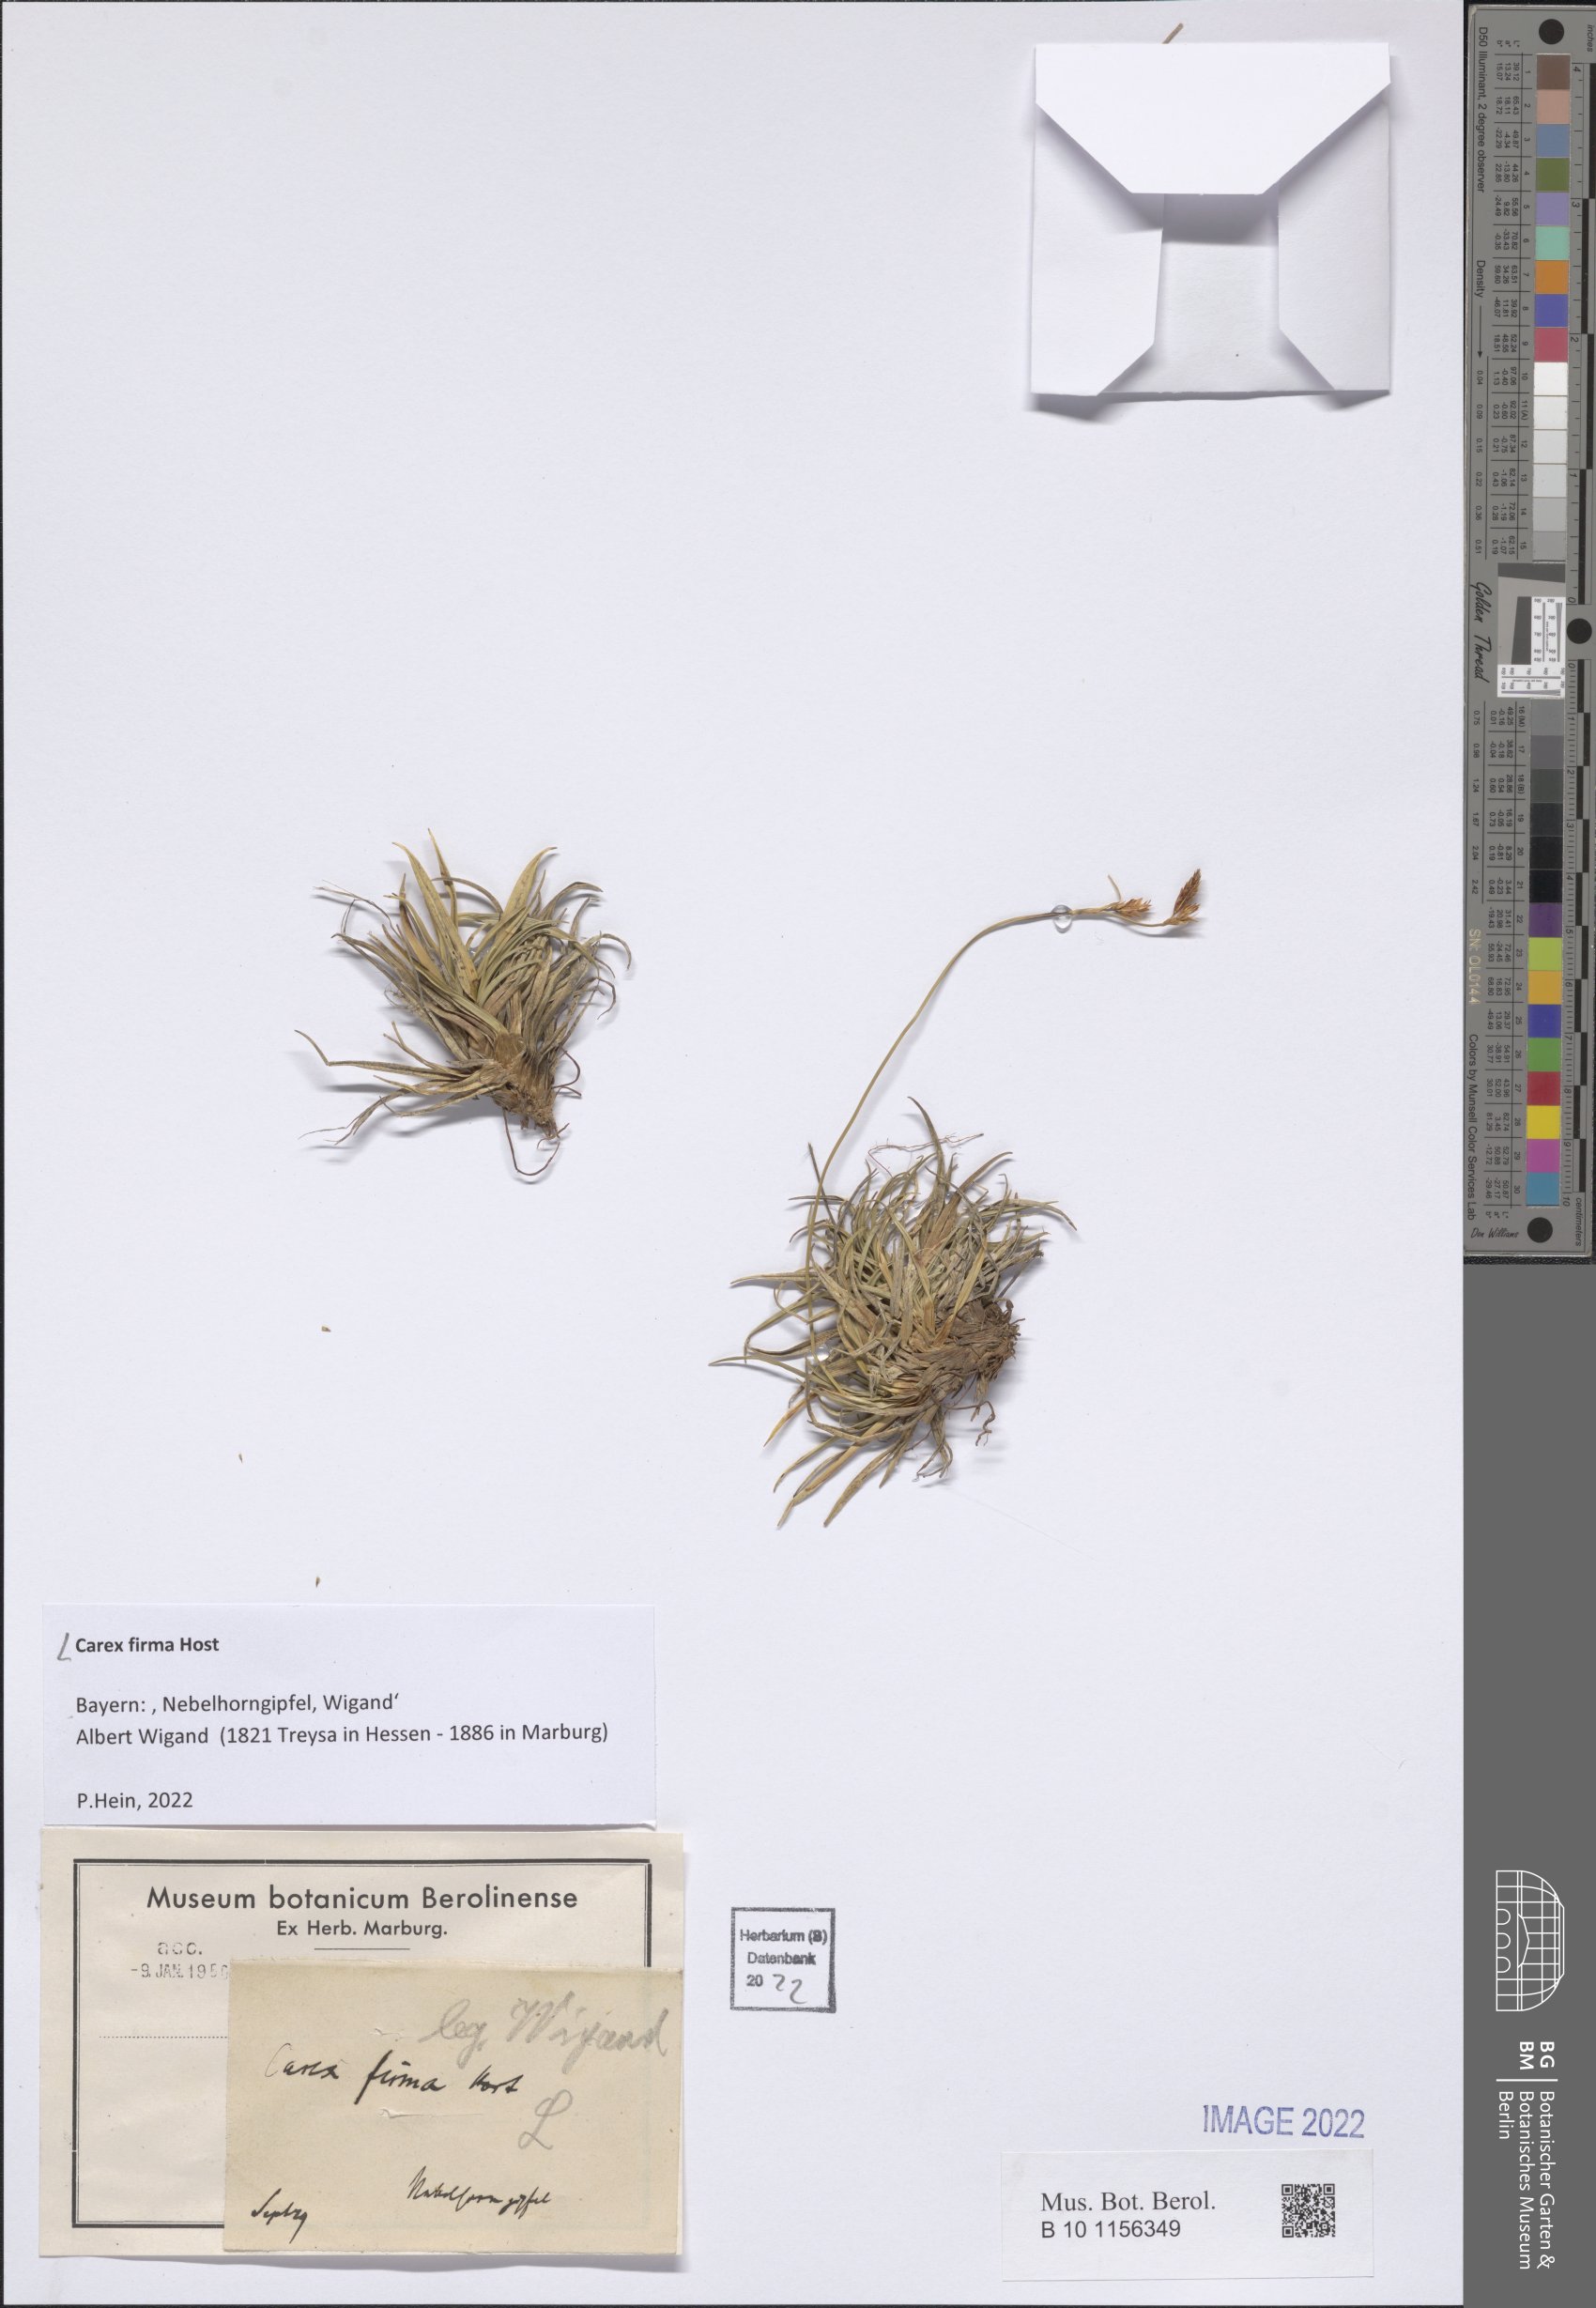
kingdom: Plantae
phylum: Tracheophyta
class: Liliopsida
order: Poales
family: Cyperaceae
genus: Carex
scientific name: Carex firma
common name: Dwarf pillow sedge
